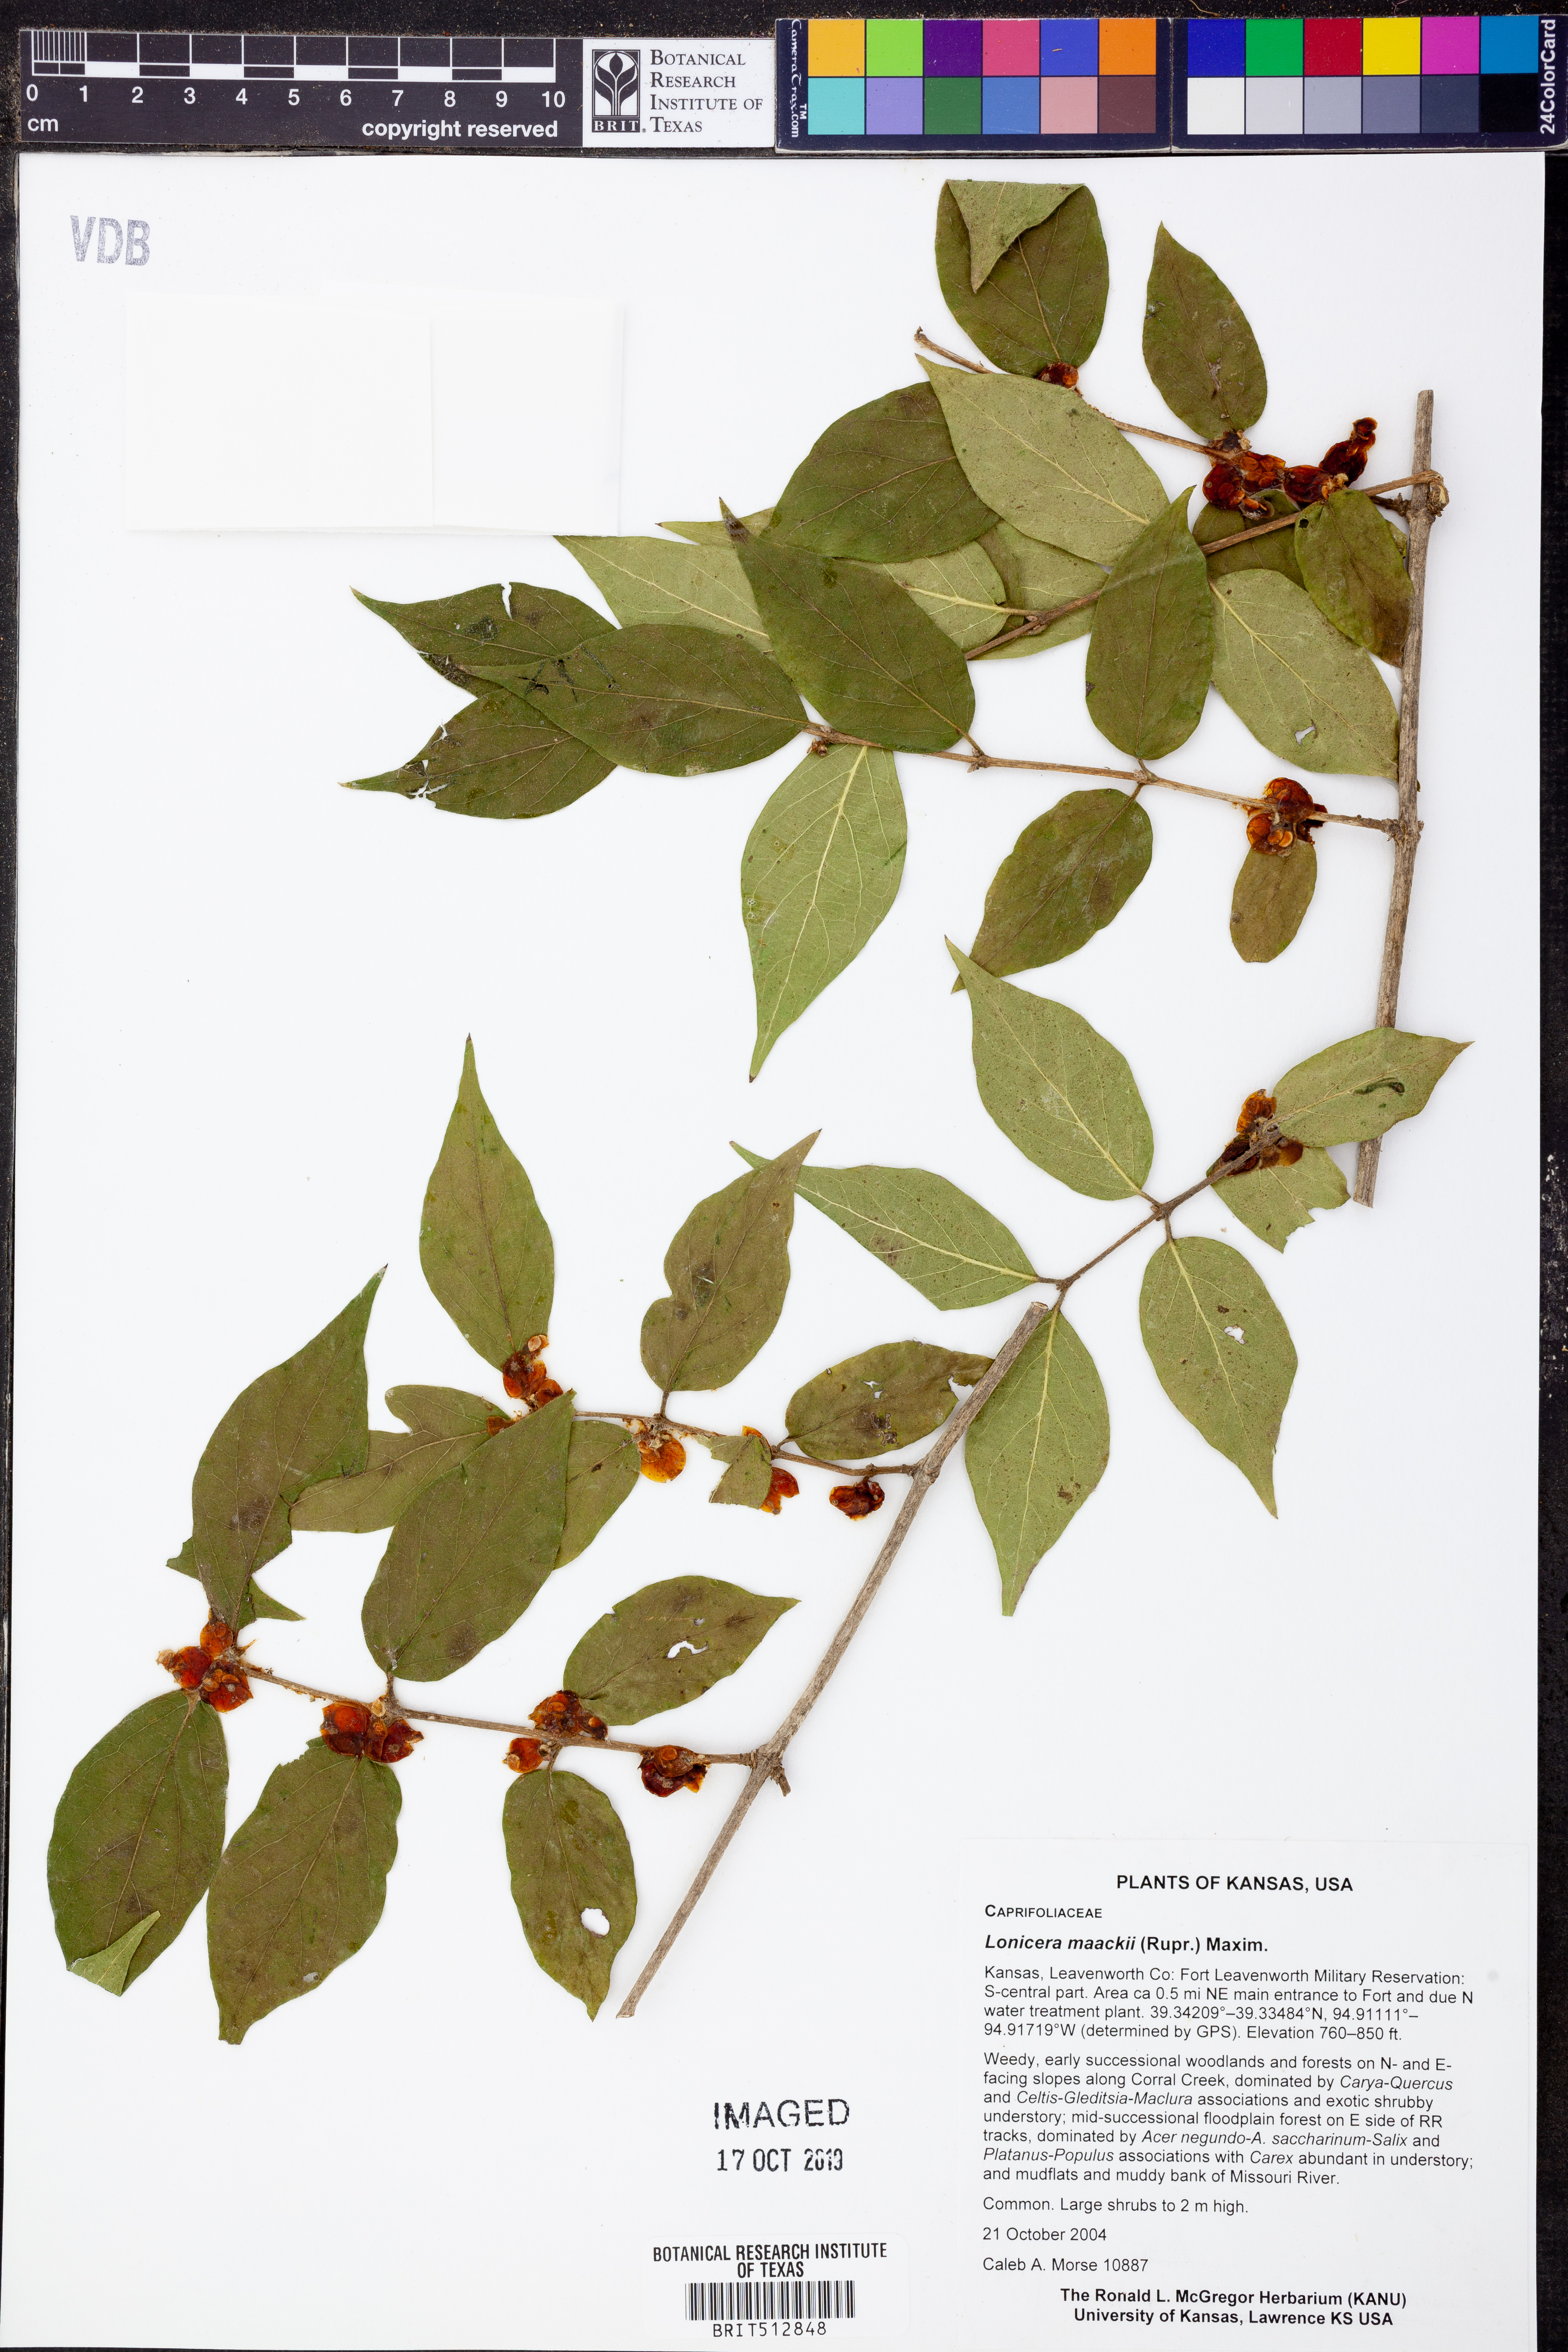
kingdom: Plantae
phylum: Tracheophyta
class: Magnoliopsida
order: Dipsacales
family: Caprifoliaceae
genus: Lonicera
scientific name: Lonicera maackii
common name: Amur honeysuckle
